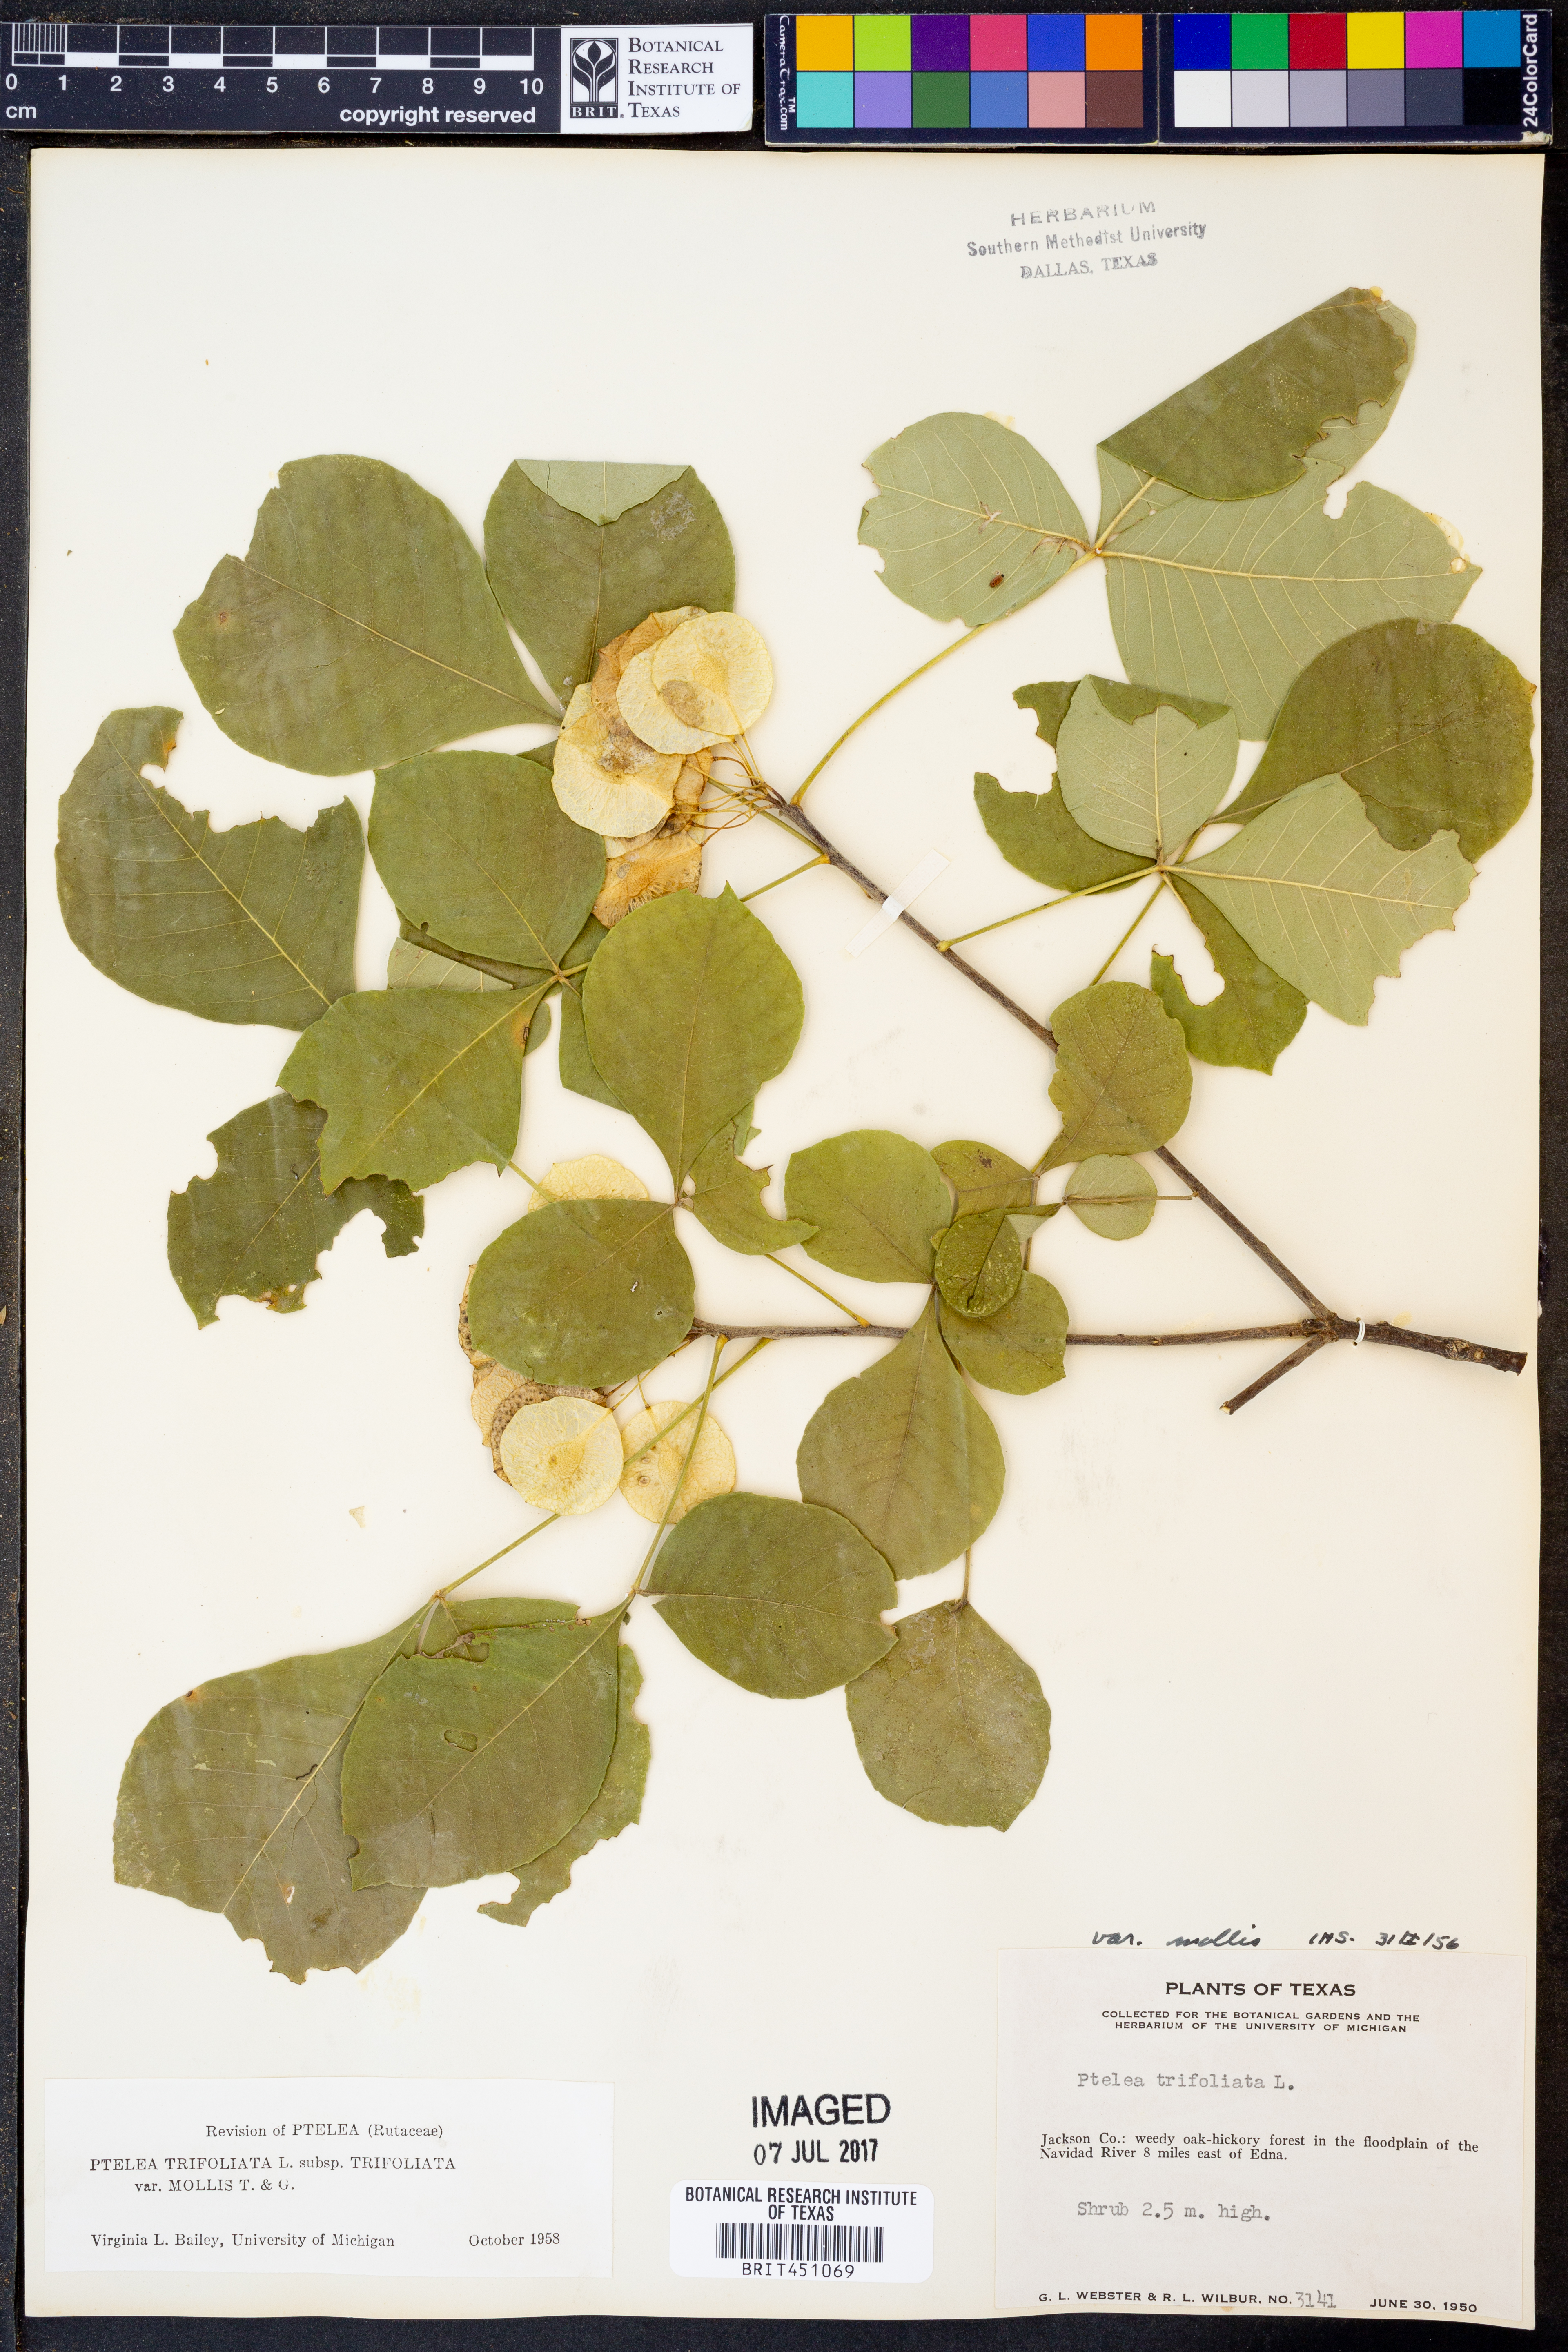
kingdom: Plantae
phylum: Tracheophyta
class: Magnoliopsida
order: Sapindales
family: Rutaceae
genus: Ptelea
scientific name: Ptelea trifoliata
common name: Common hop-tree
